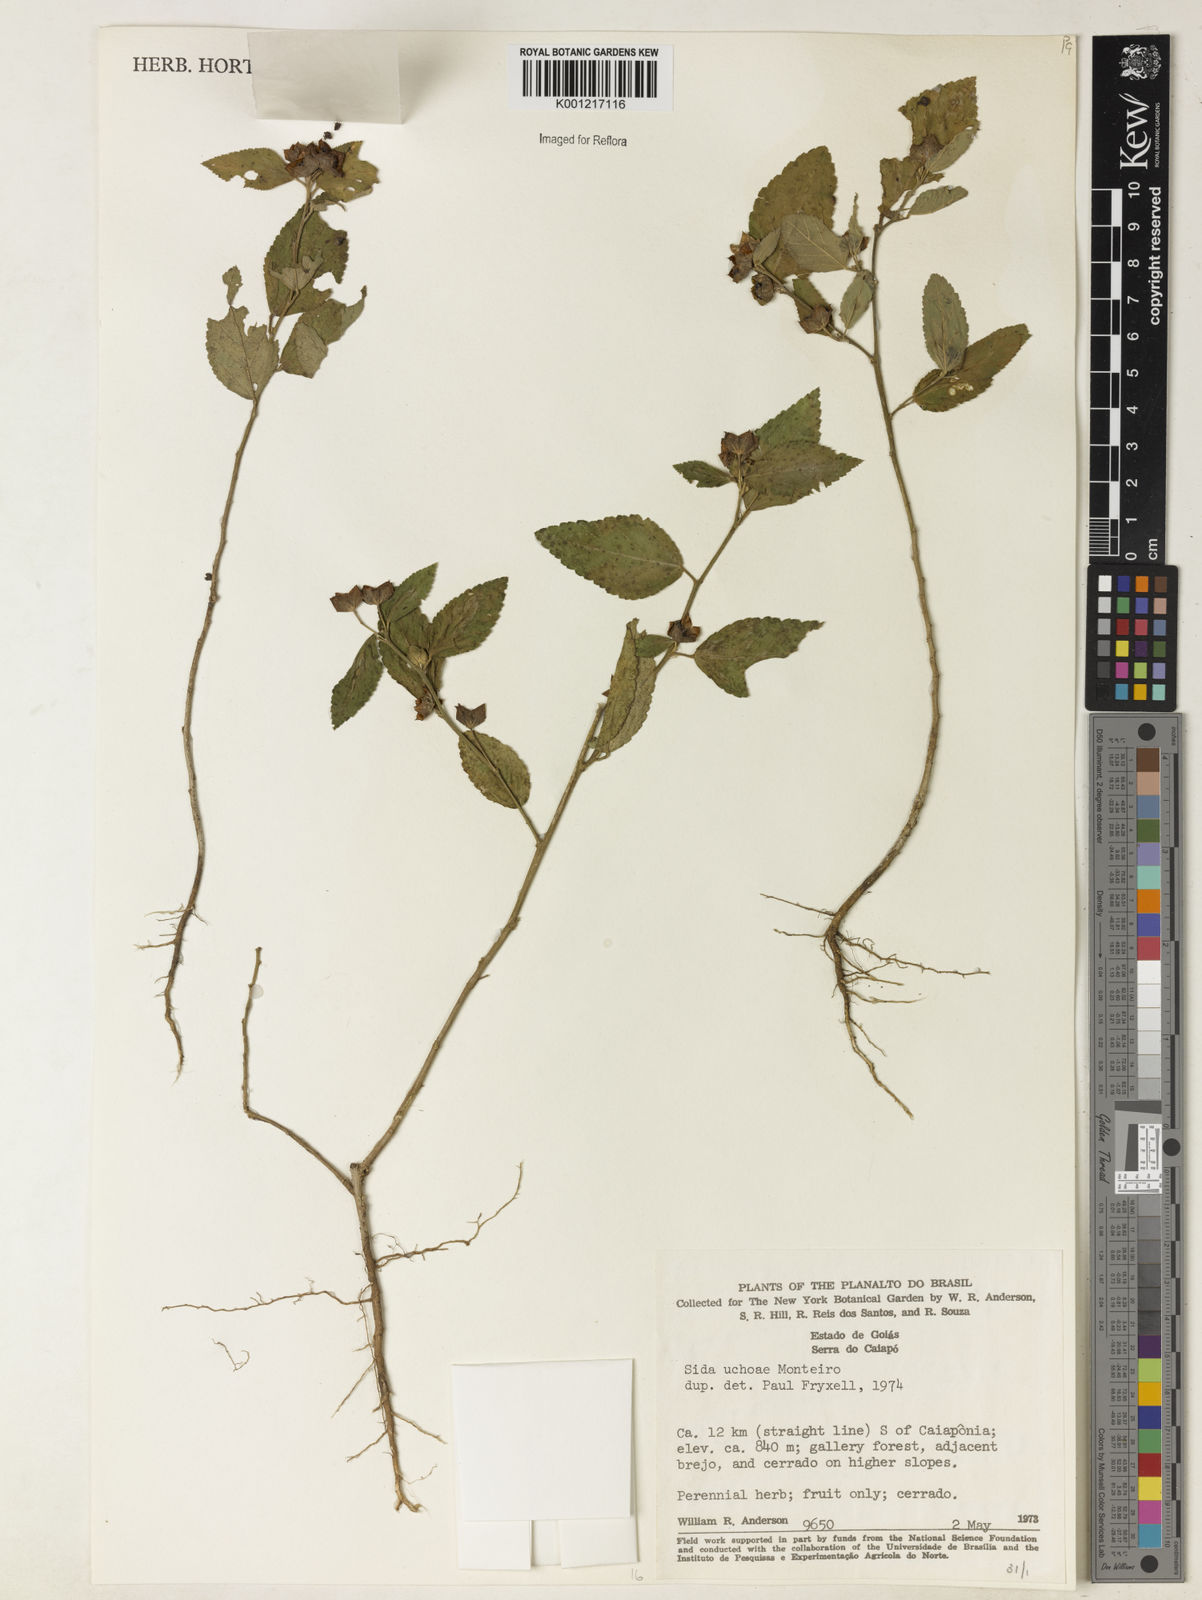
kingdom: Plantae
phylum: Tracheophyta
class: Magnoliopsida
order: Malvales
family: Malvaceae
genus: Sida
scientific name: Sida
